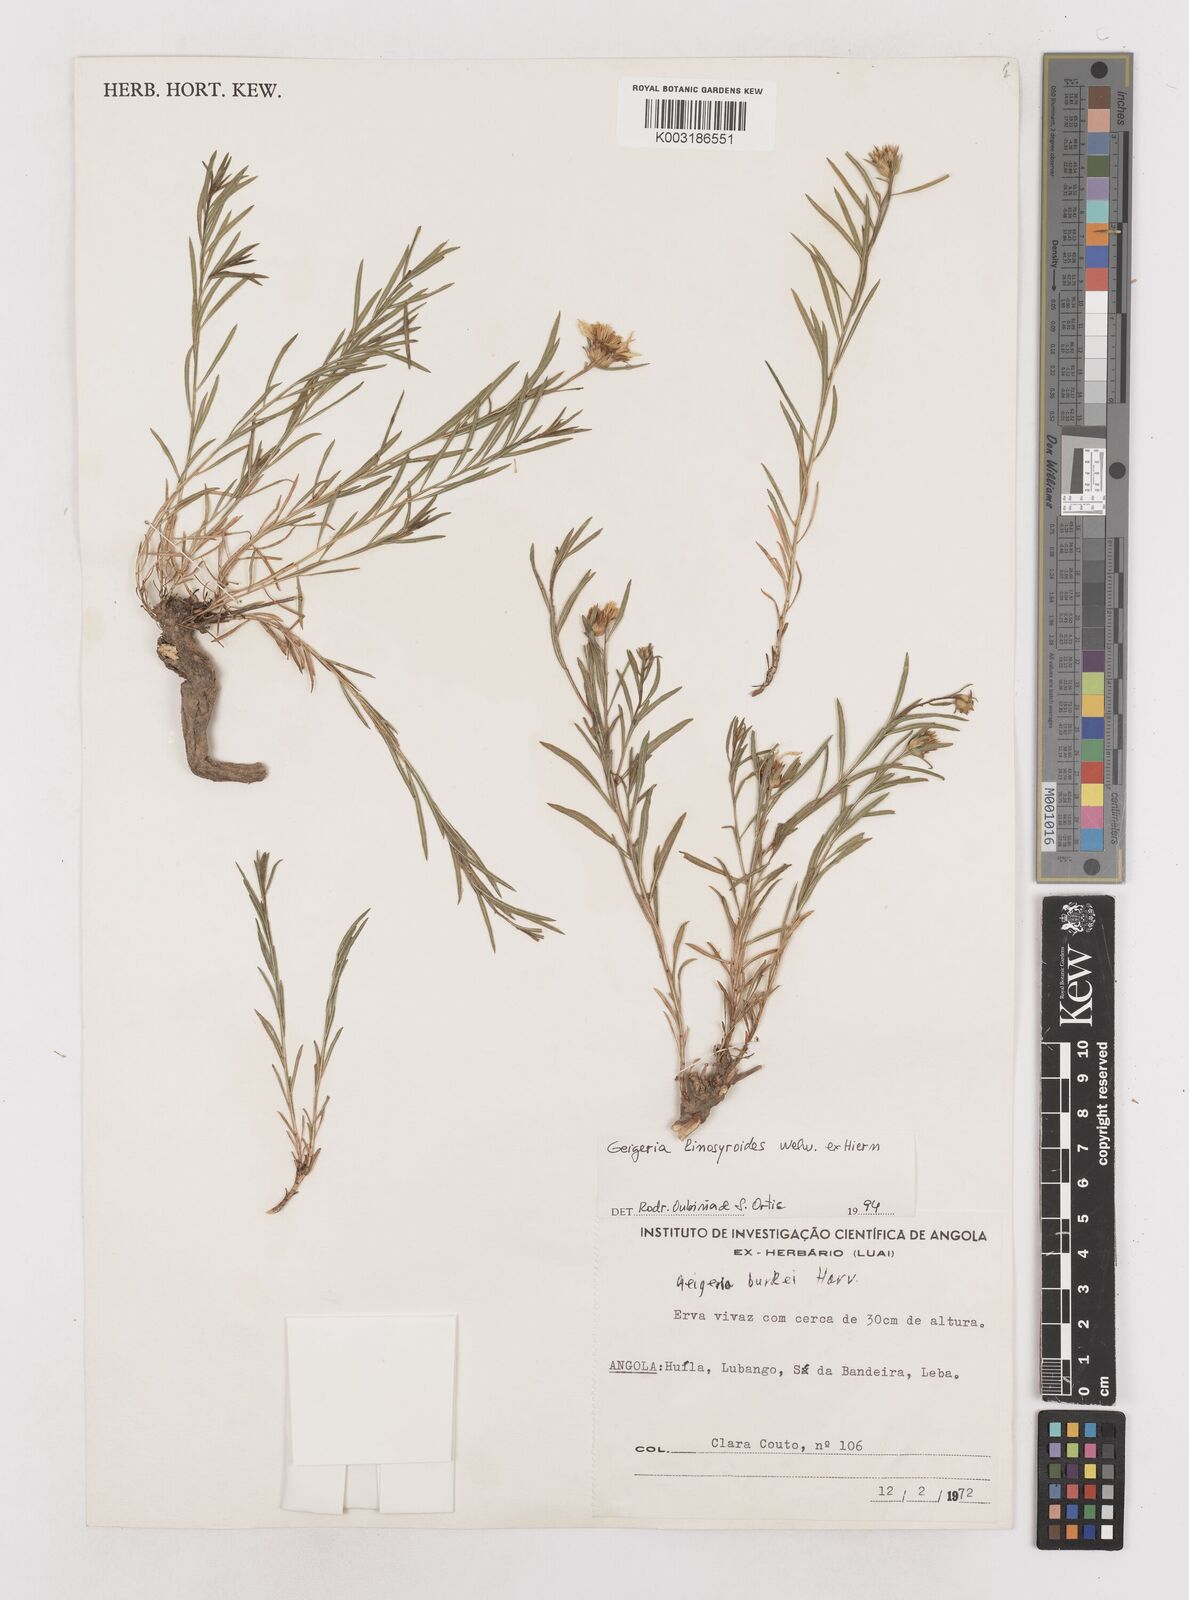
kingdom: Plantae
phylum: Tracheophyta
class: Magnoliopsida
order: Asterales
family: Asteraceae
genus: Geigeria
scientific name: Geigeria linosyroides
